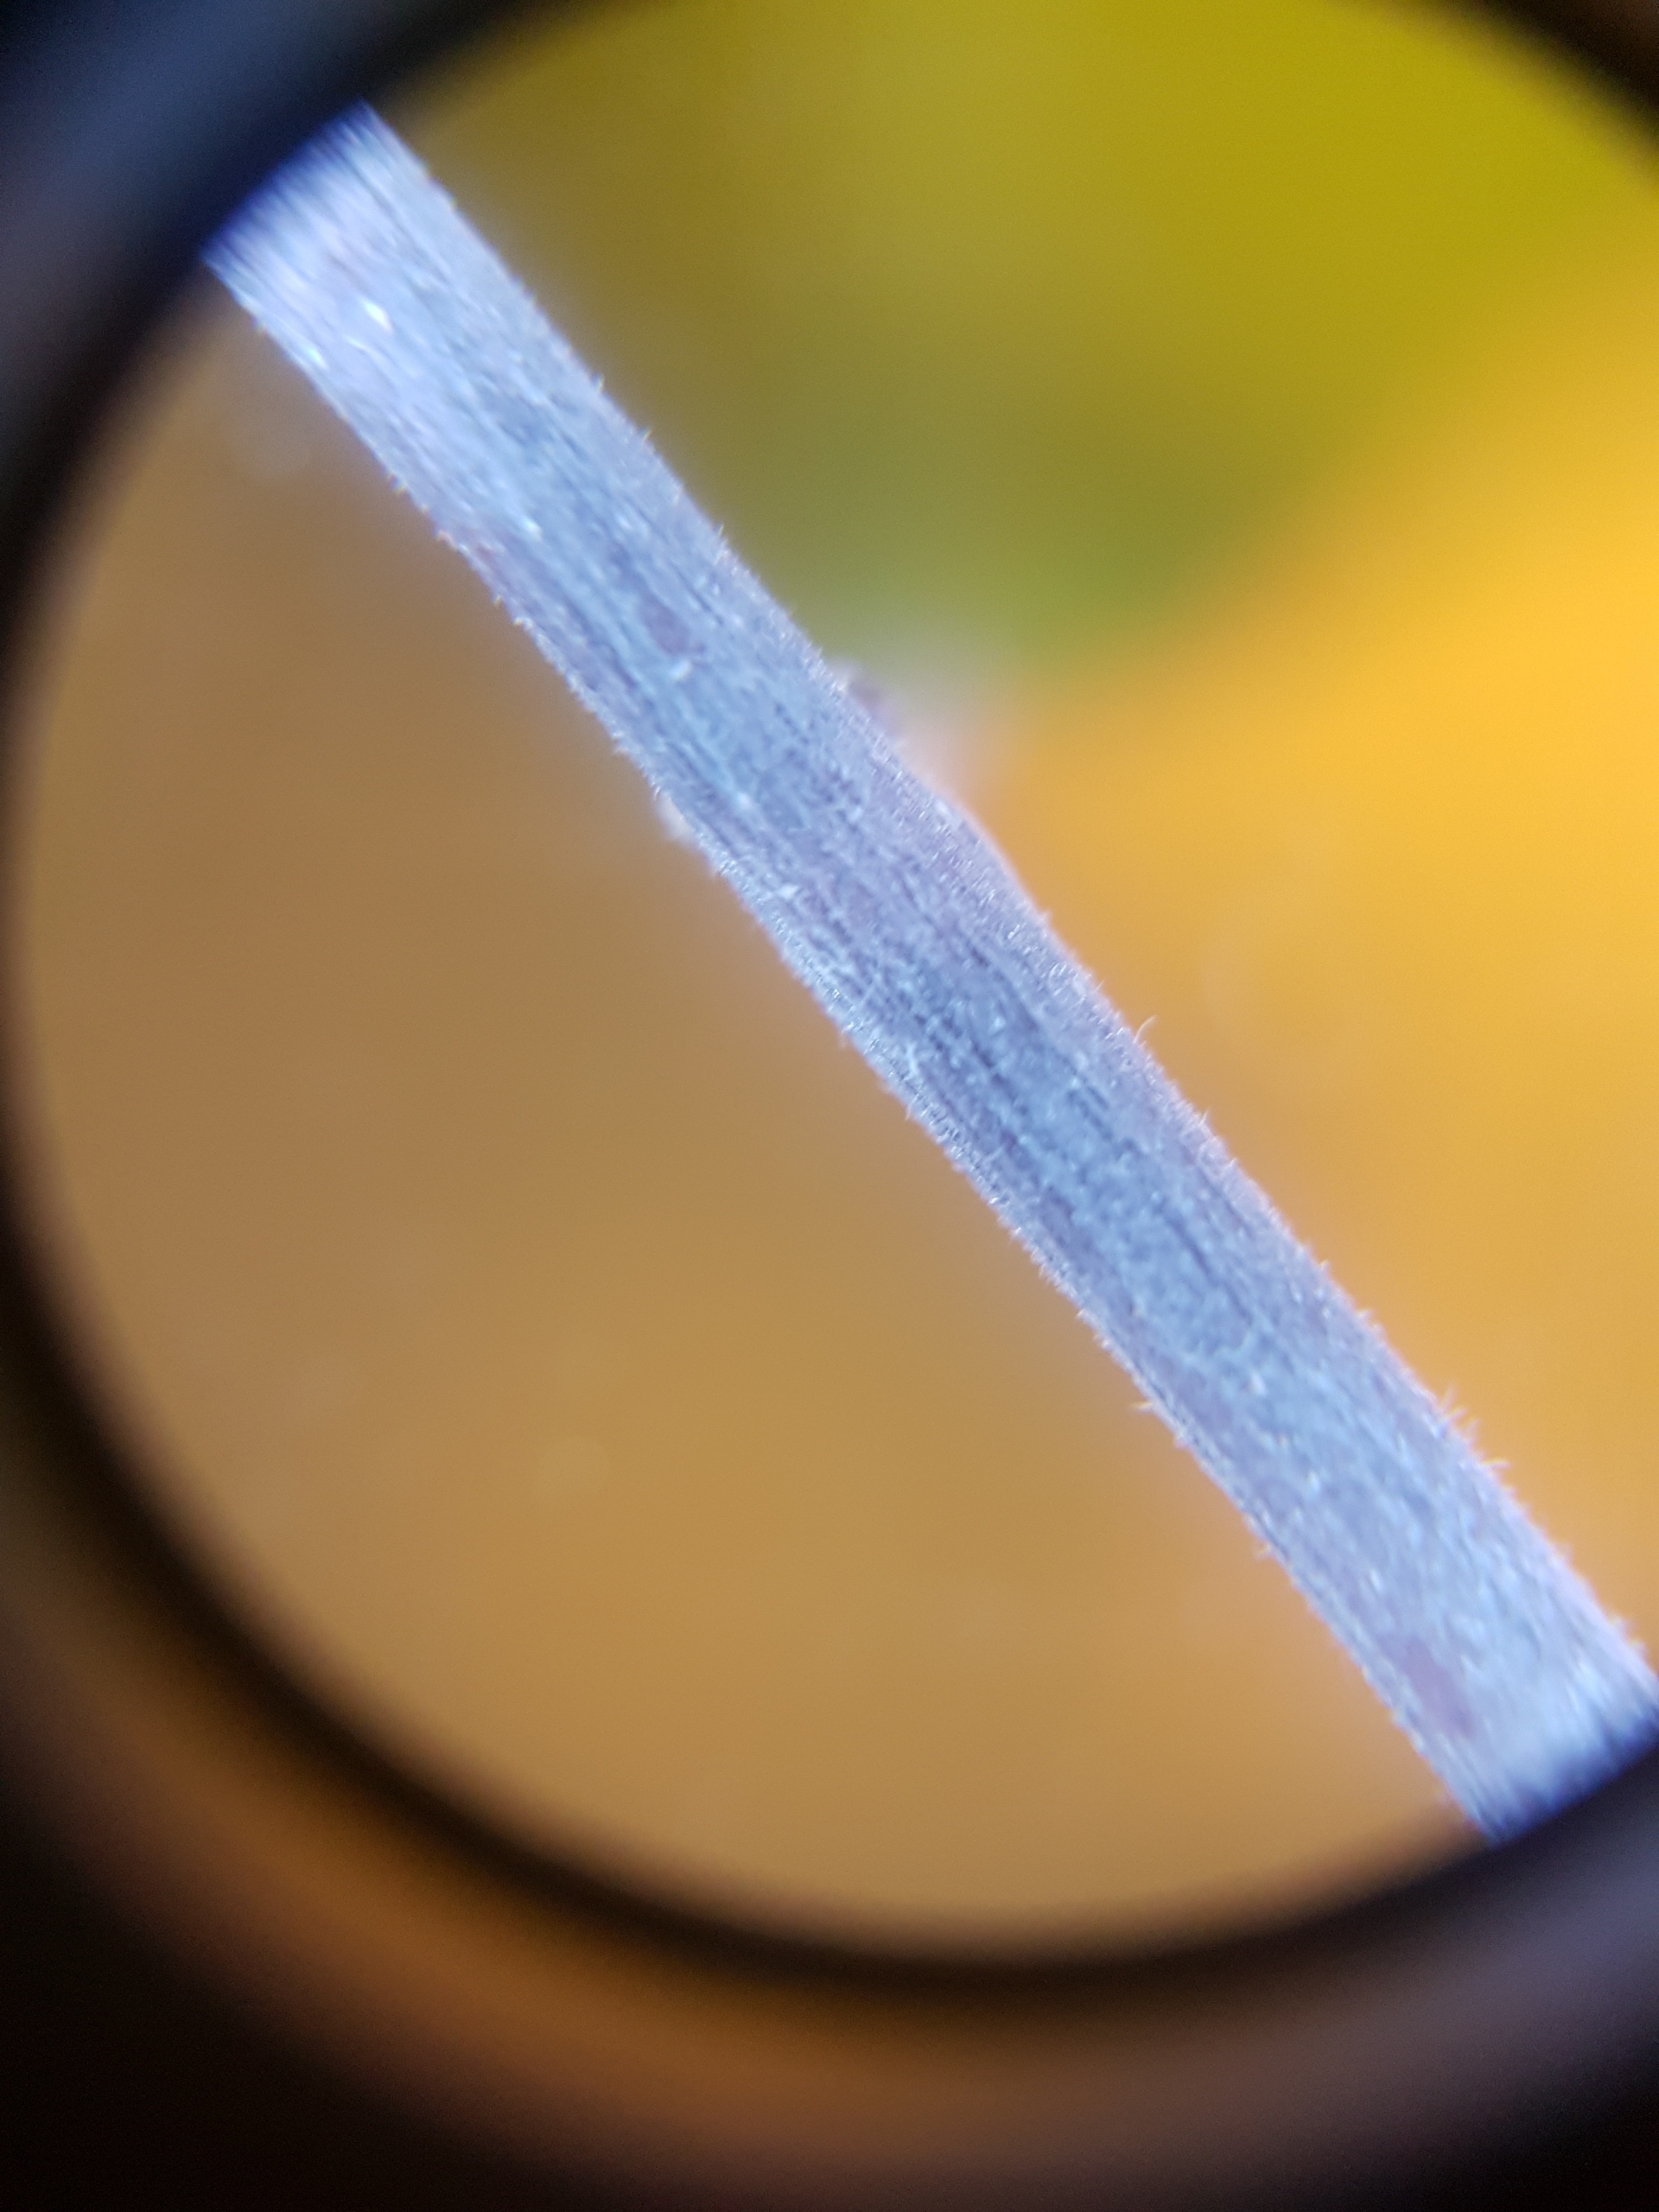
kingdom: Plantae
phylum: Tracheophyta
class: Magnoliopsida
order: Rosales
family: Rosaceae
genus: Prunus
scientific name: Prunus spinosa
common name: Slåen
